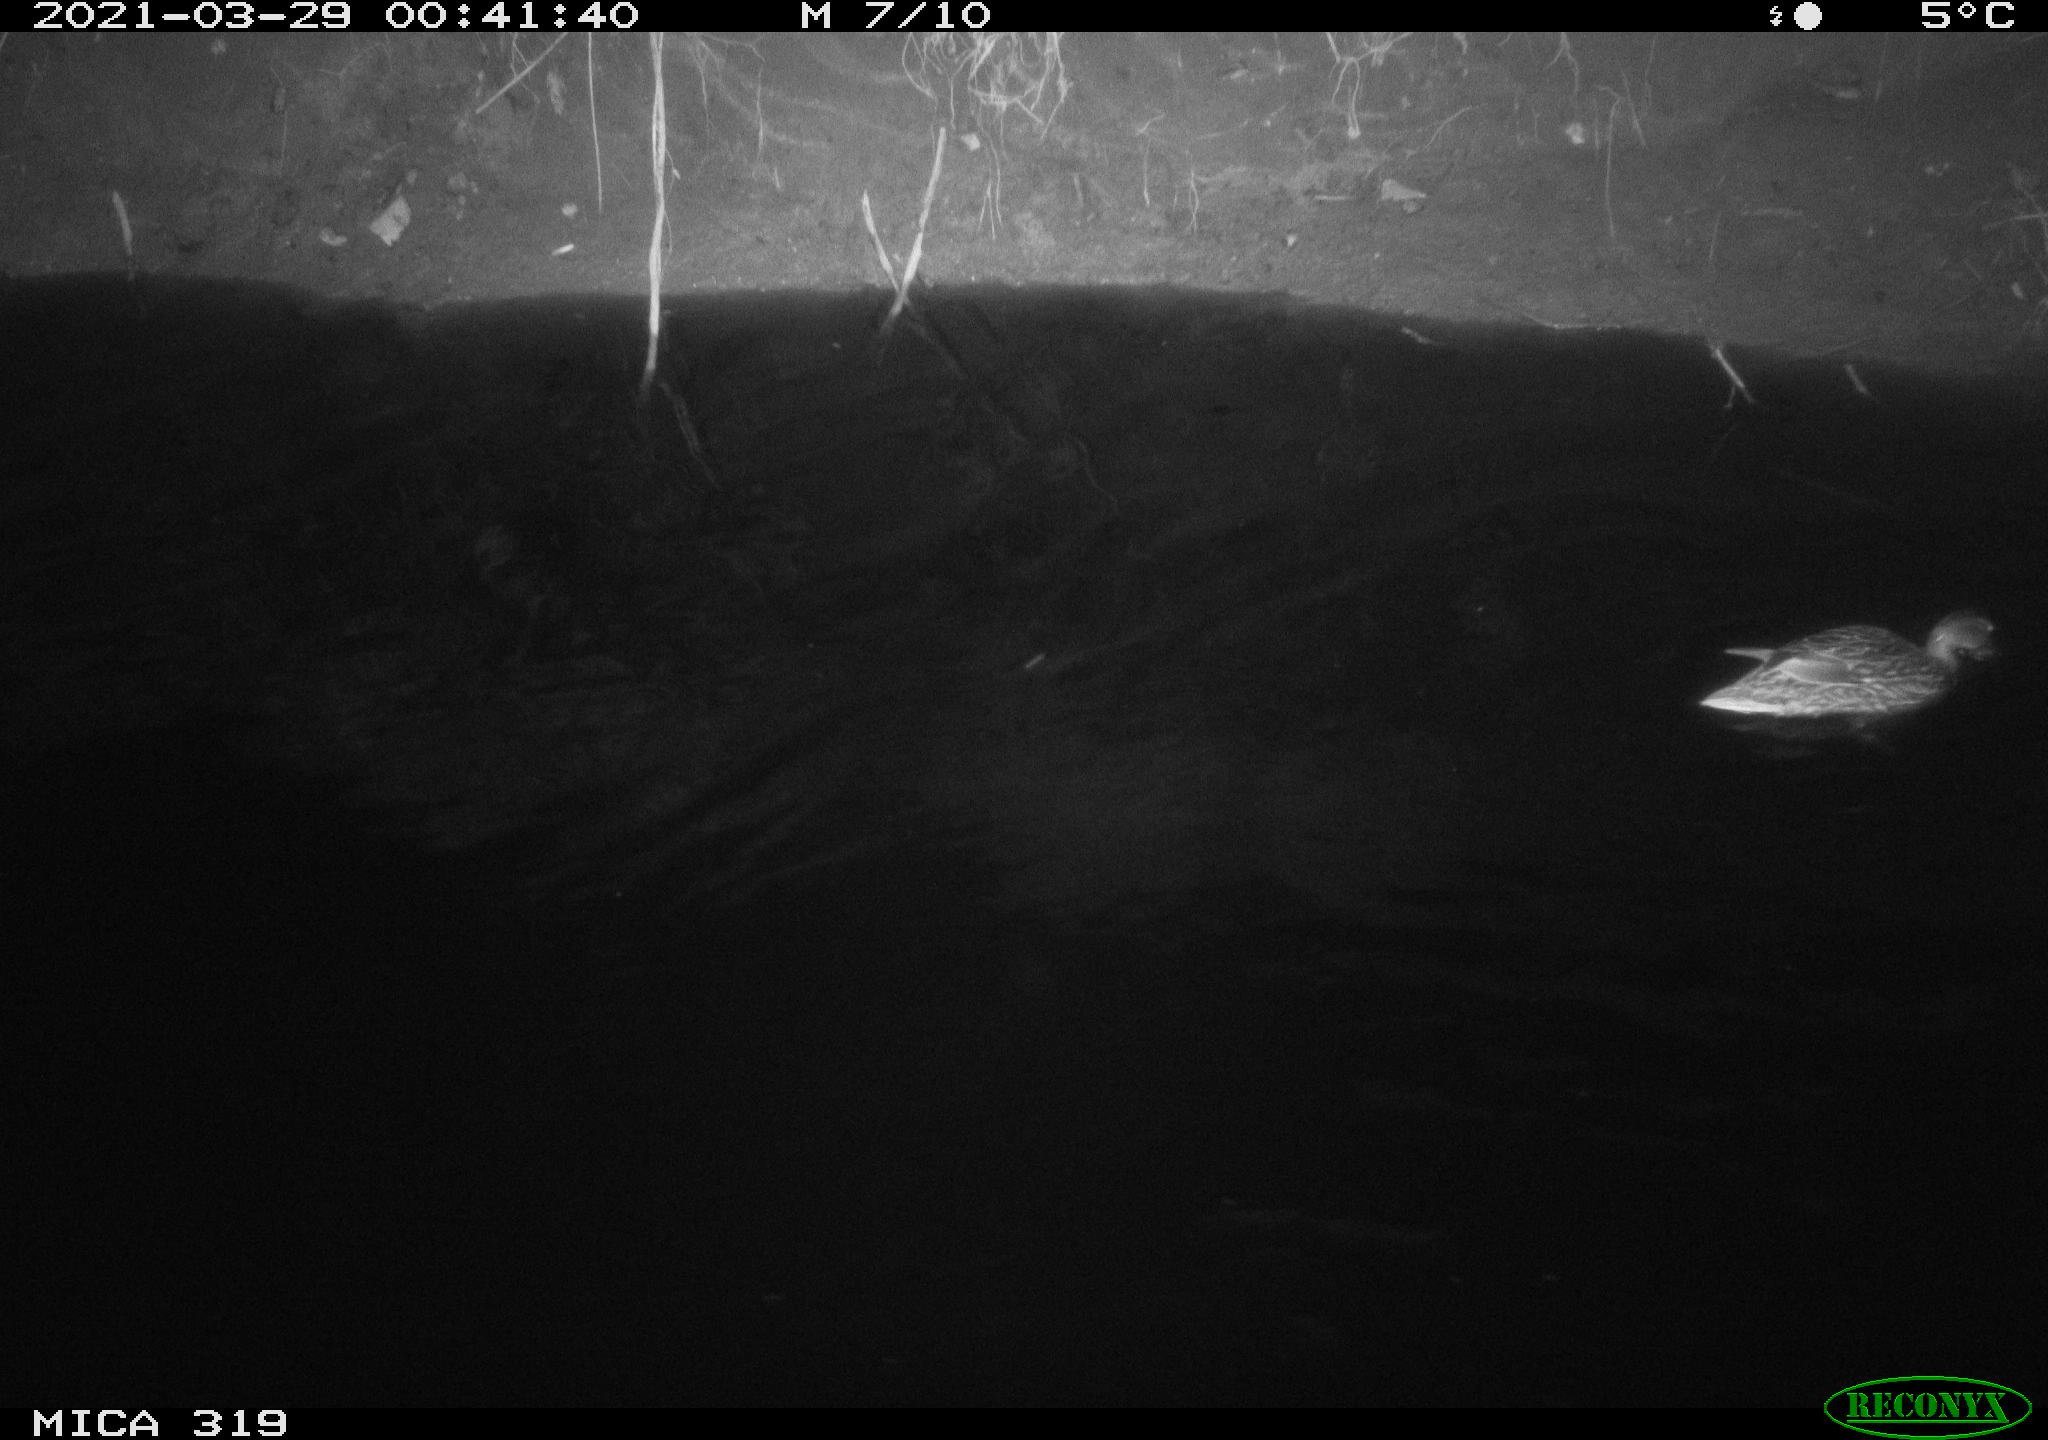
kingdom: Animalia
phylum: Chordata
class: Aves
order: Anseriformes
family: Anatidae
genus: Anas
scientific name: Anas platyrhynchos
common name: Mallard
